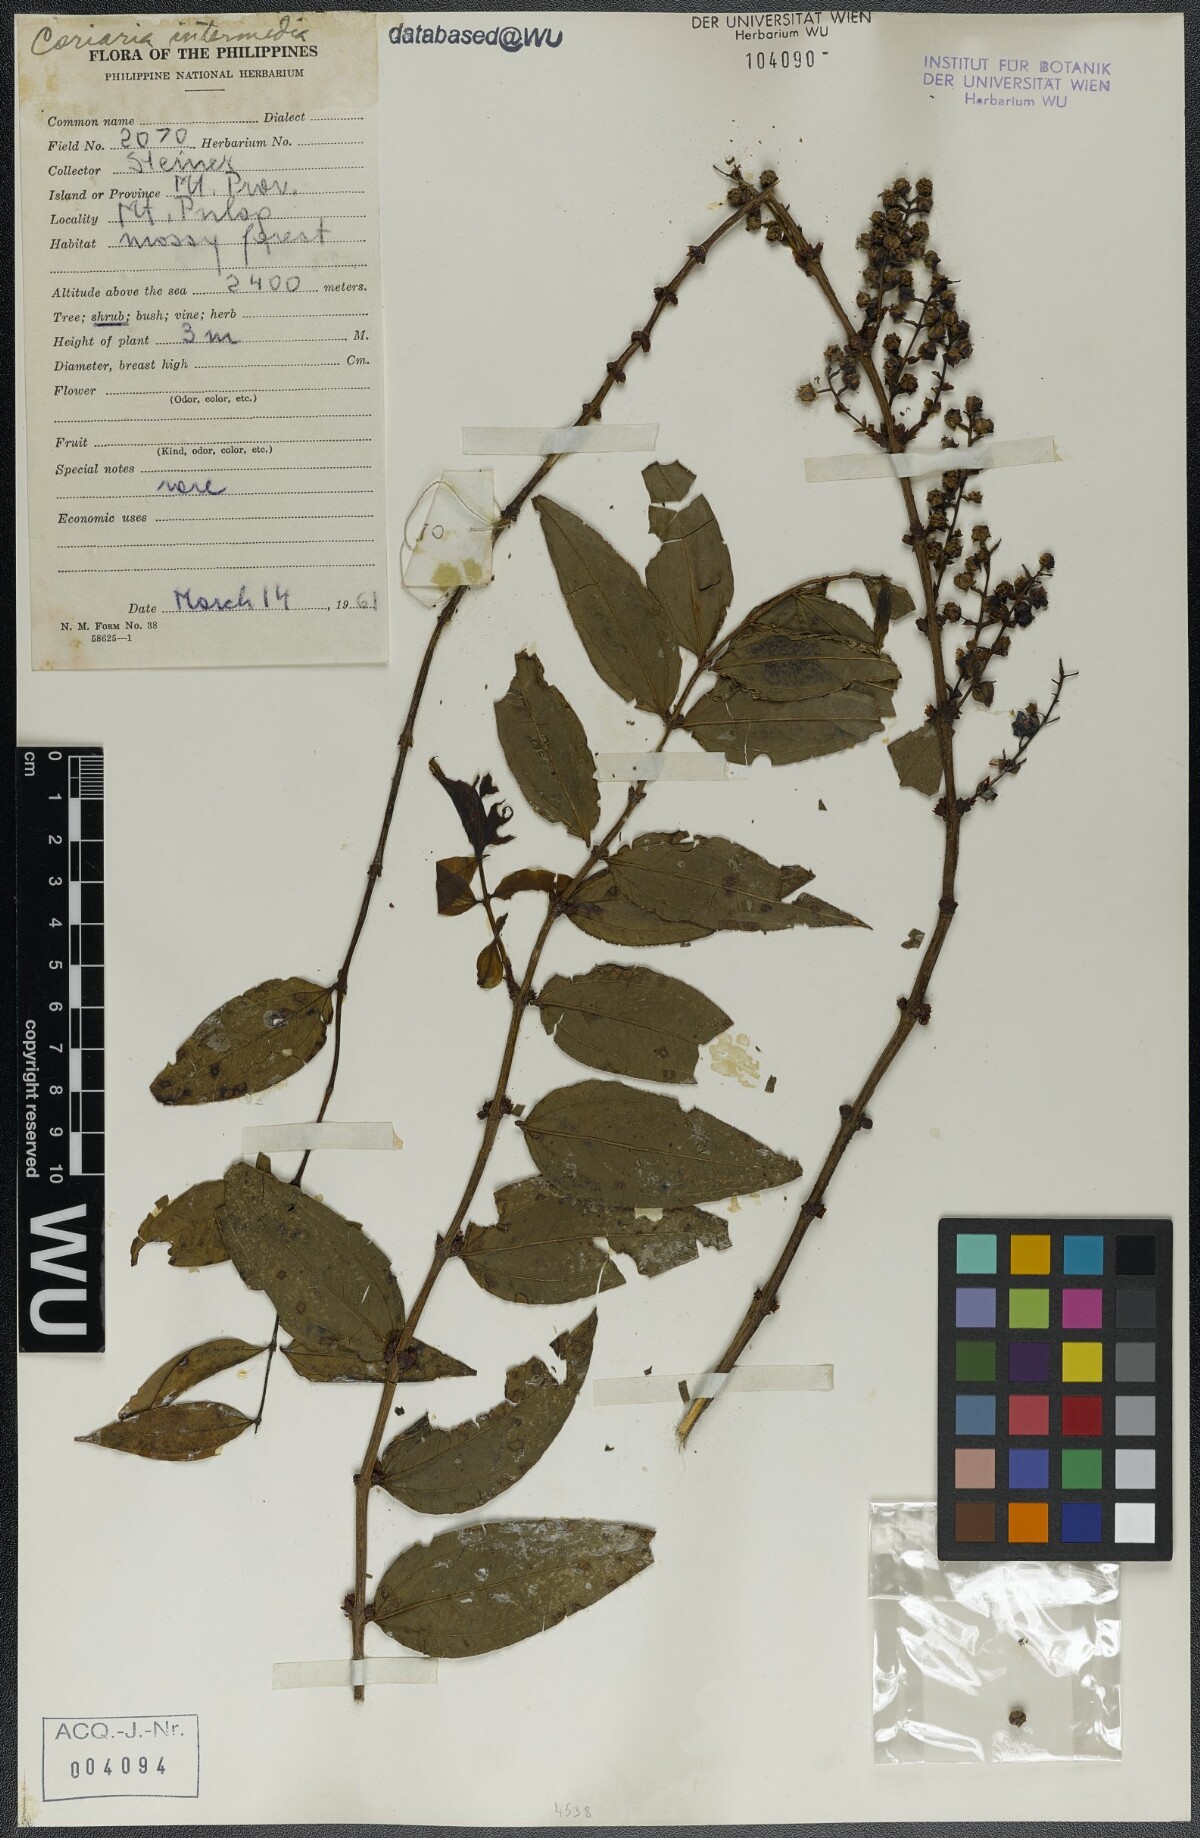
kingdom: Plantae
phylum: Tracheophyta
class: Magnoliopsida
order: Cucurbitales
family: Coriariaceae
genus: Coriaria
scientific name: Coriaria japonica
